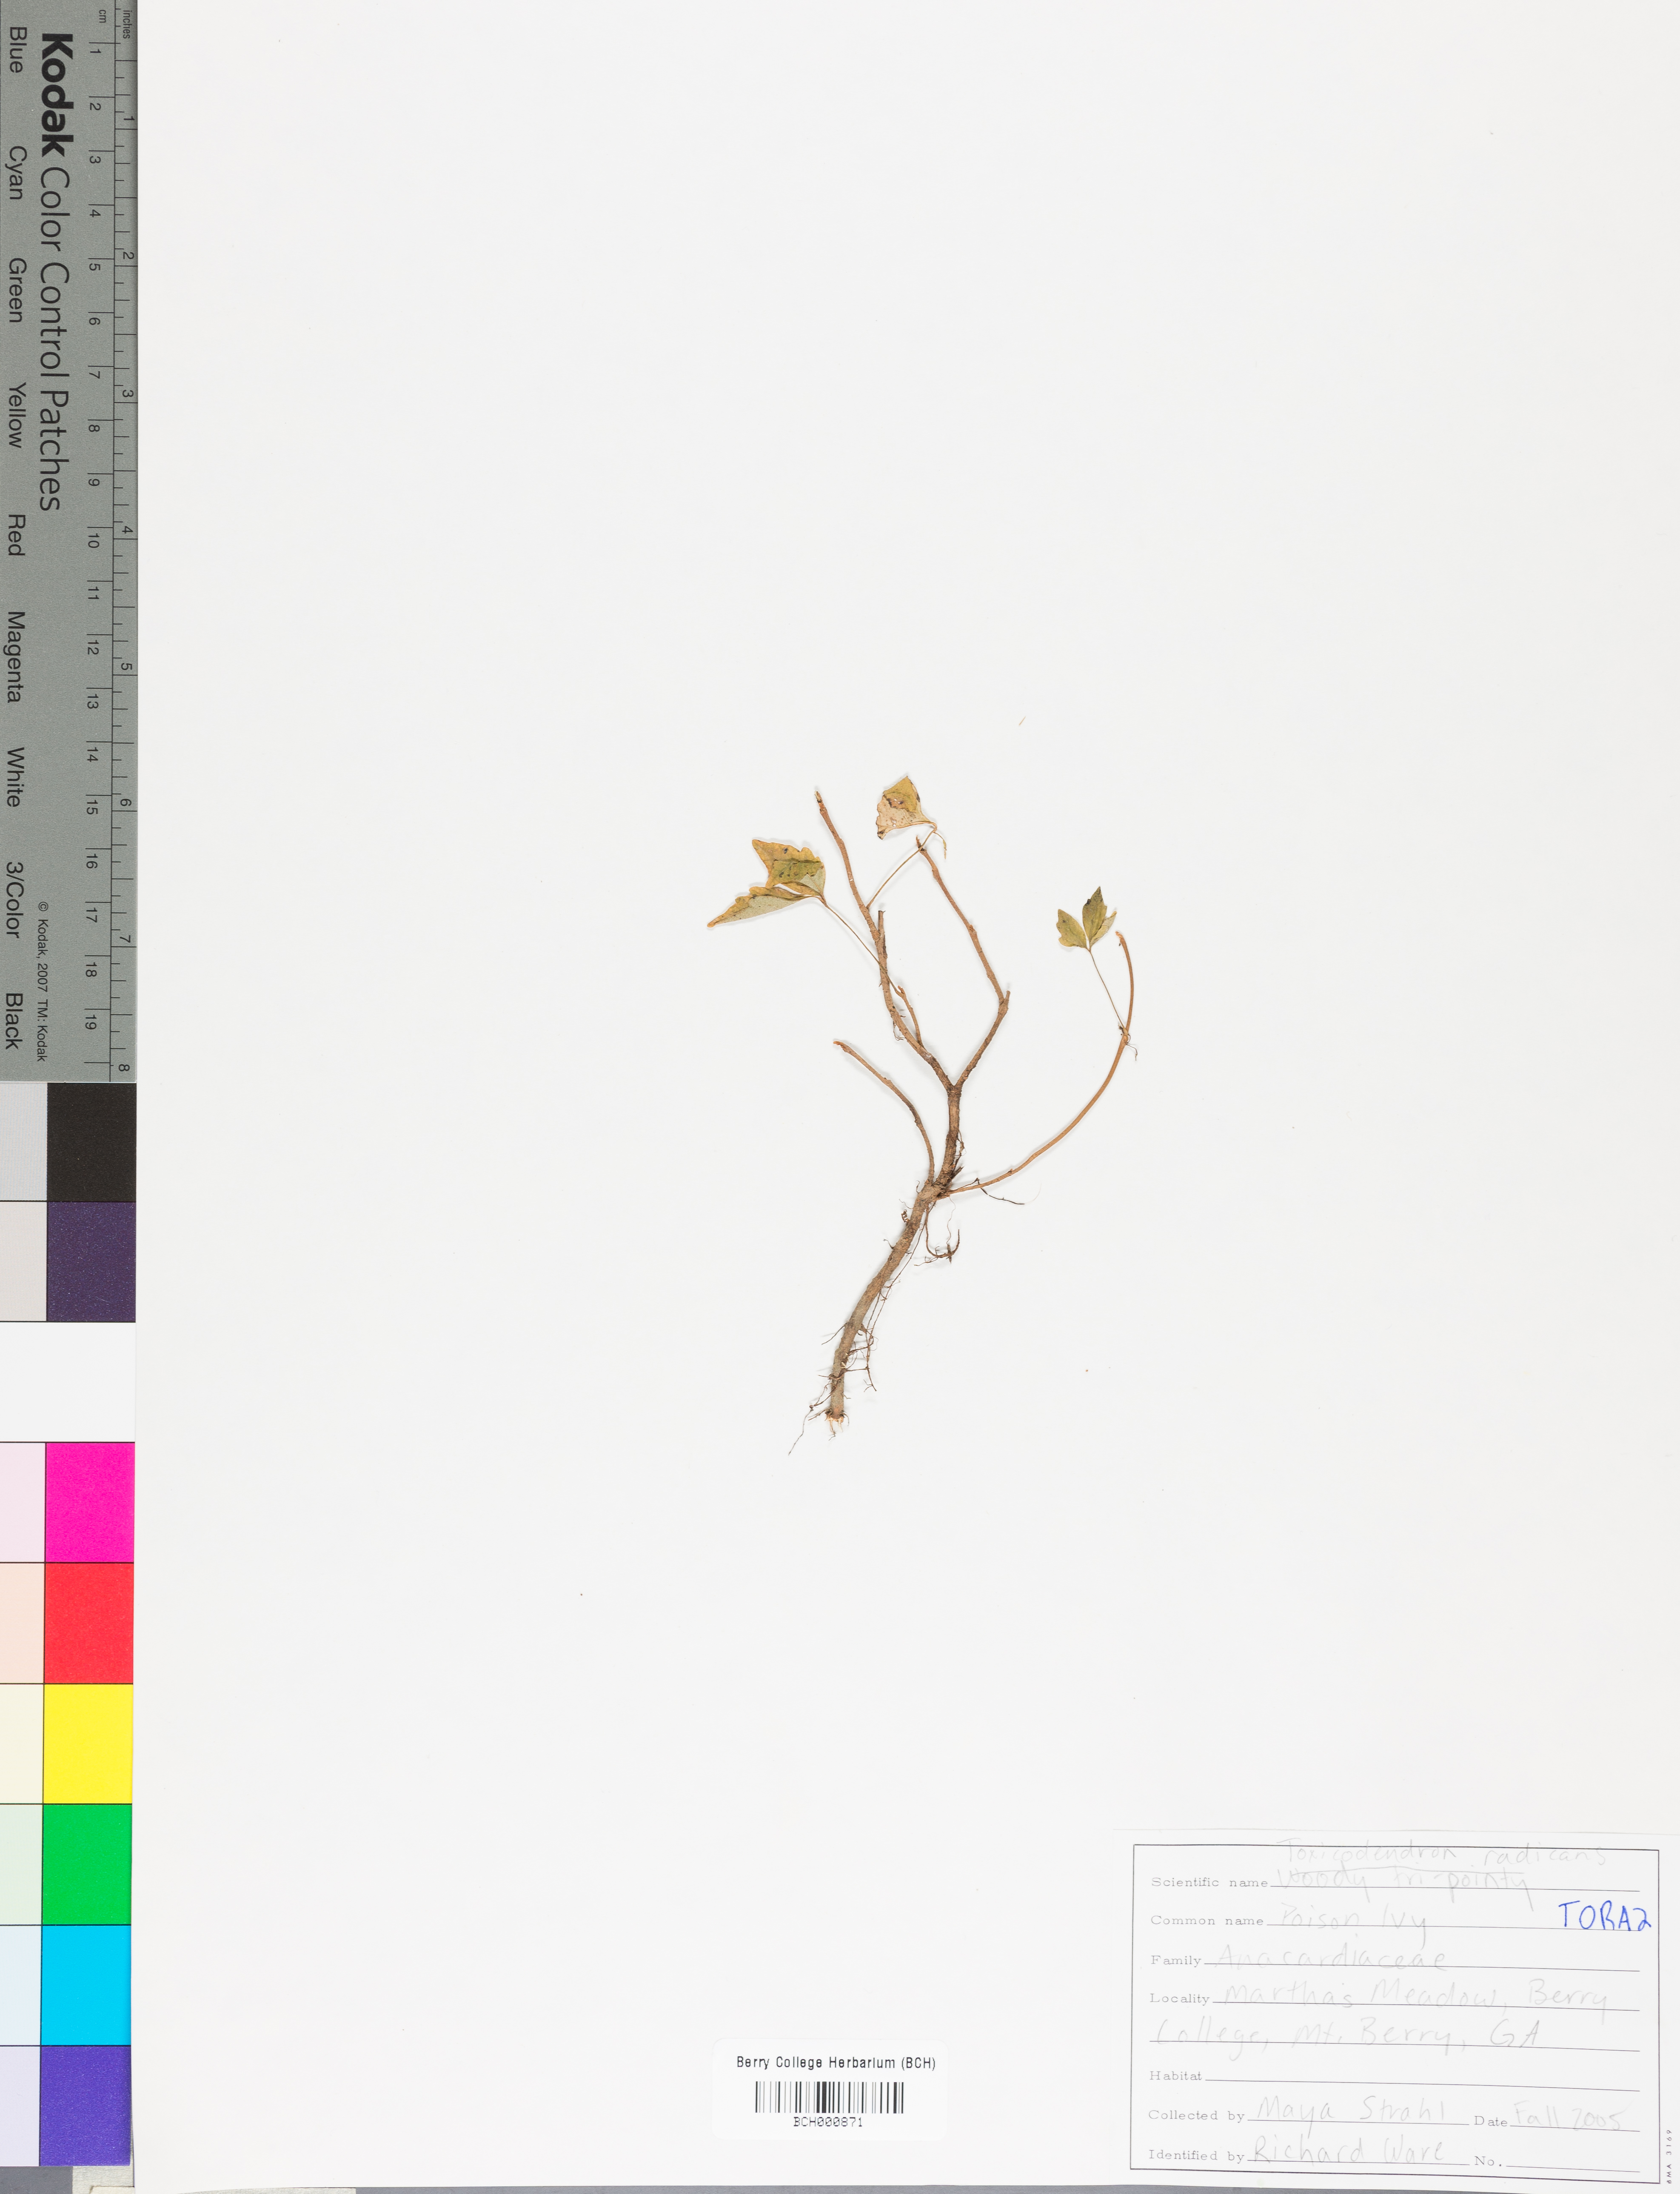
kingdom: Plantae
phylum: Tracheophyta
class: Magnoliopsida
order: Sapindales
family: Anacardiaceae
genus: Toxicodendron
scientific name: Toxicodendron radicans
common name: Poison ivy
